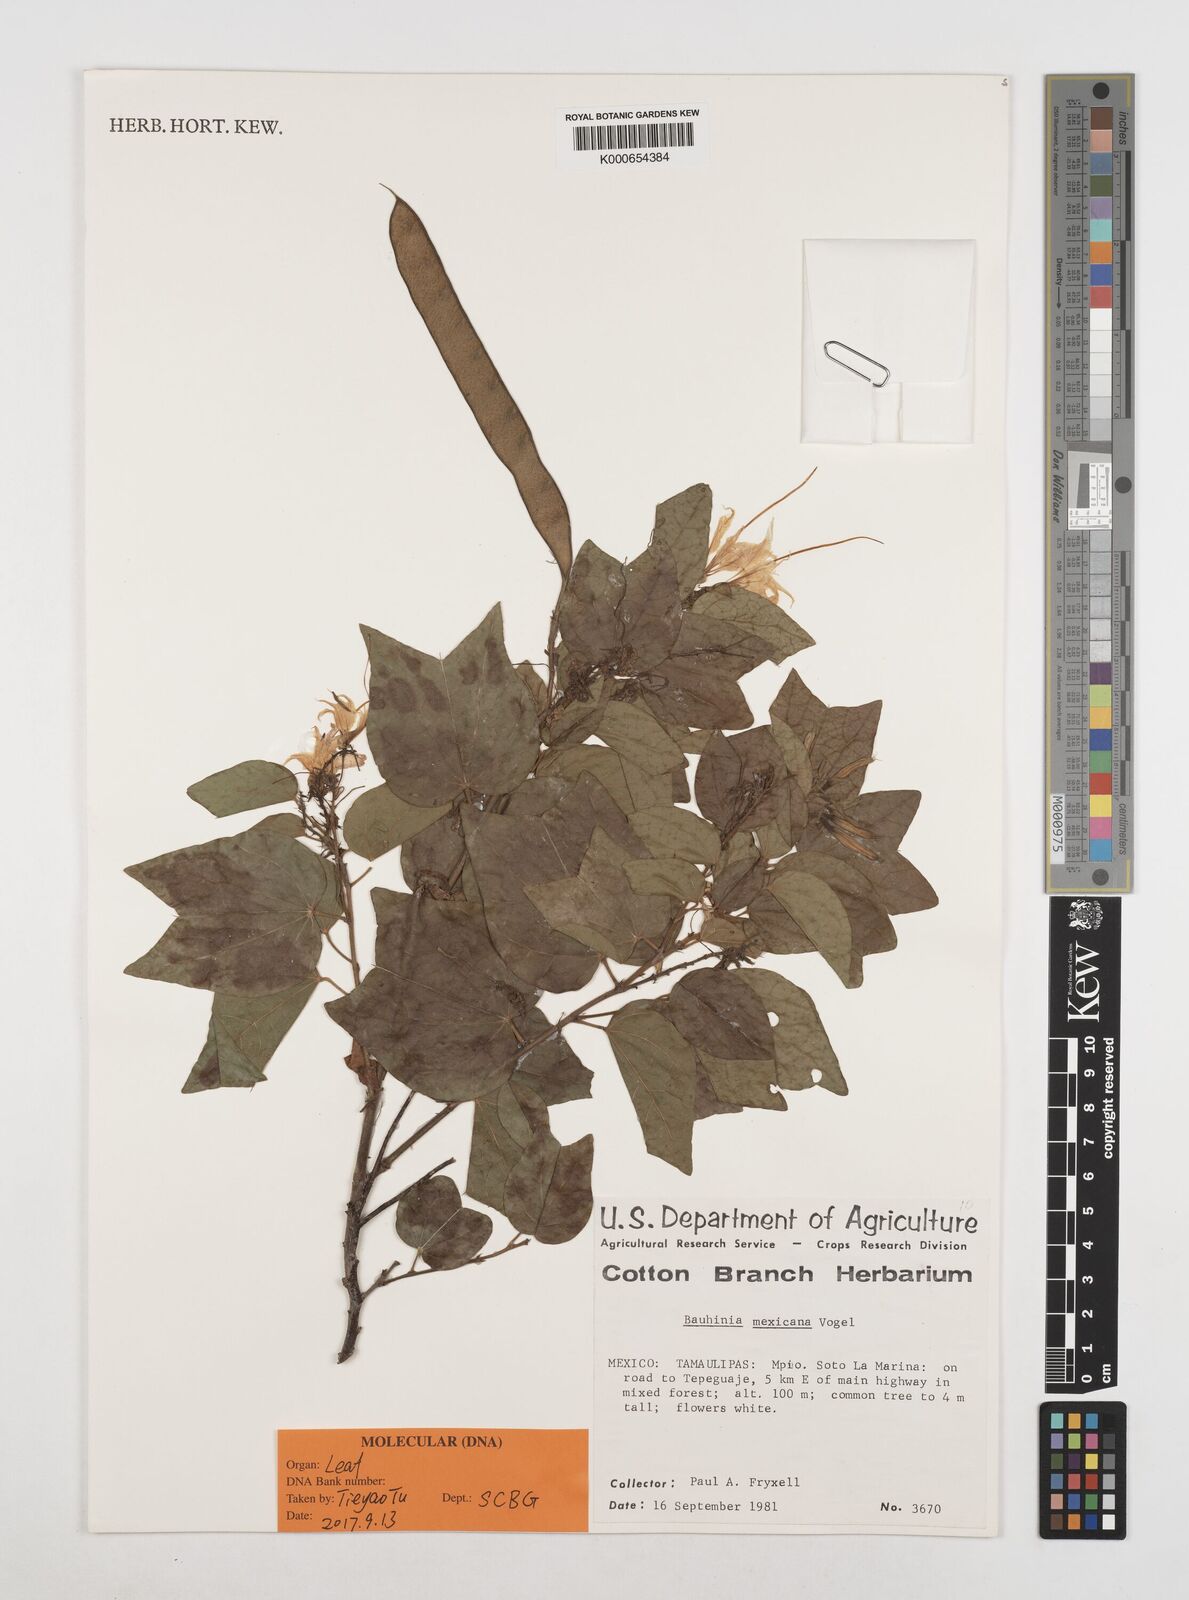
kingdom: Plantae
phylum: Tracheophyta
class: Magnoliopsida
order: Fabales
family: Fabaceae
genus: Bauhinia
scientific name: Bauhinia divaricata
